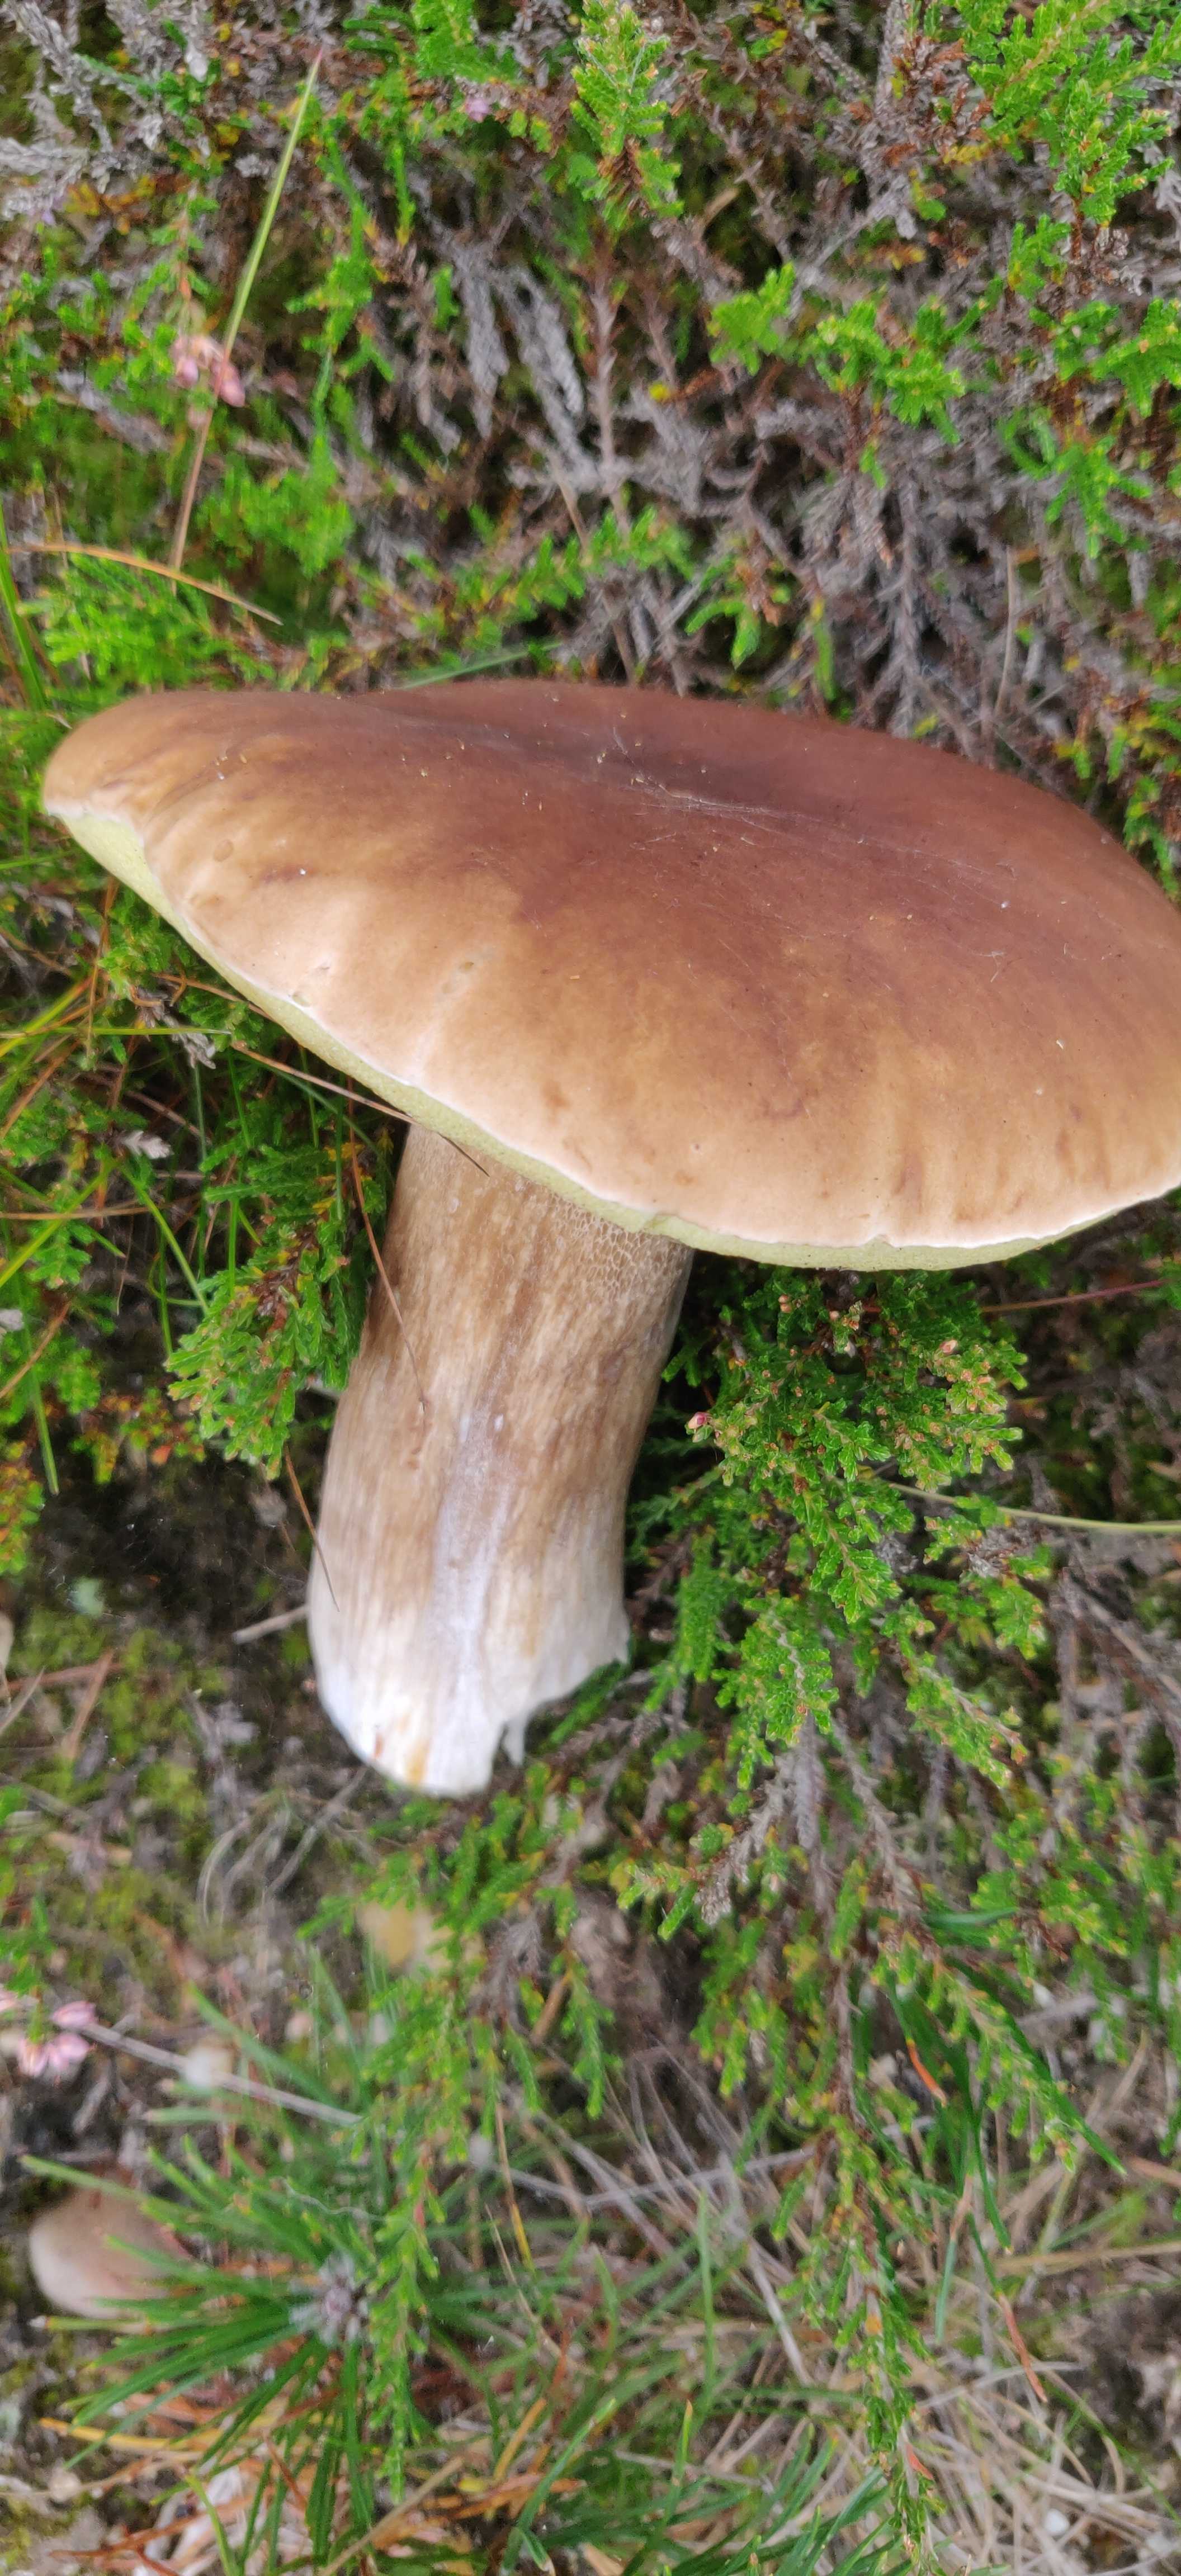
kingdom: Fungi
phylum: Basidiomycota
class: Agaricomycetes
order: Boletales
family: Boletaceae
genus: Boletus
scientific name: Boletus edulis
